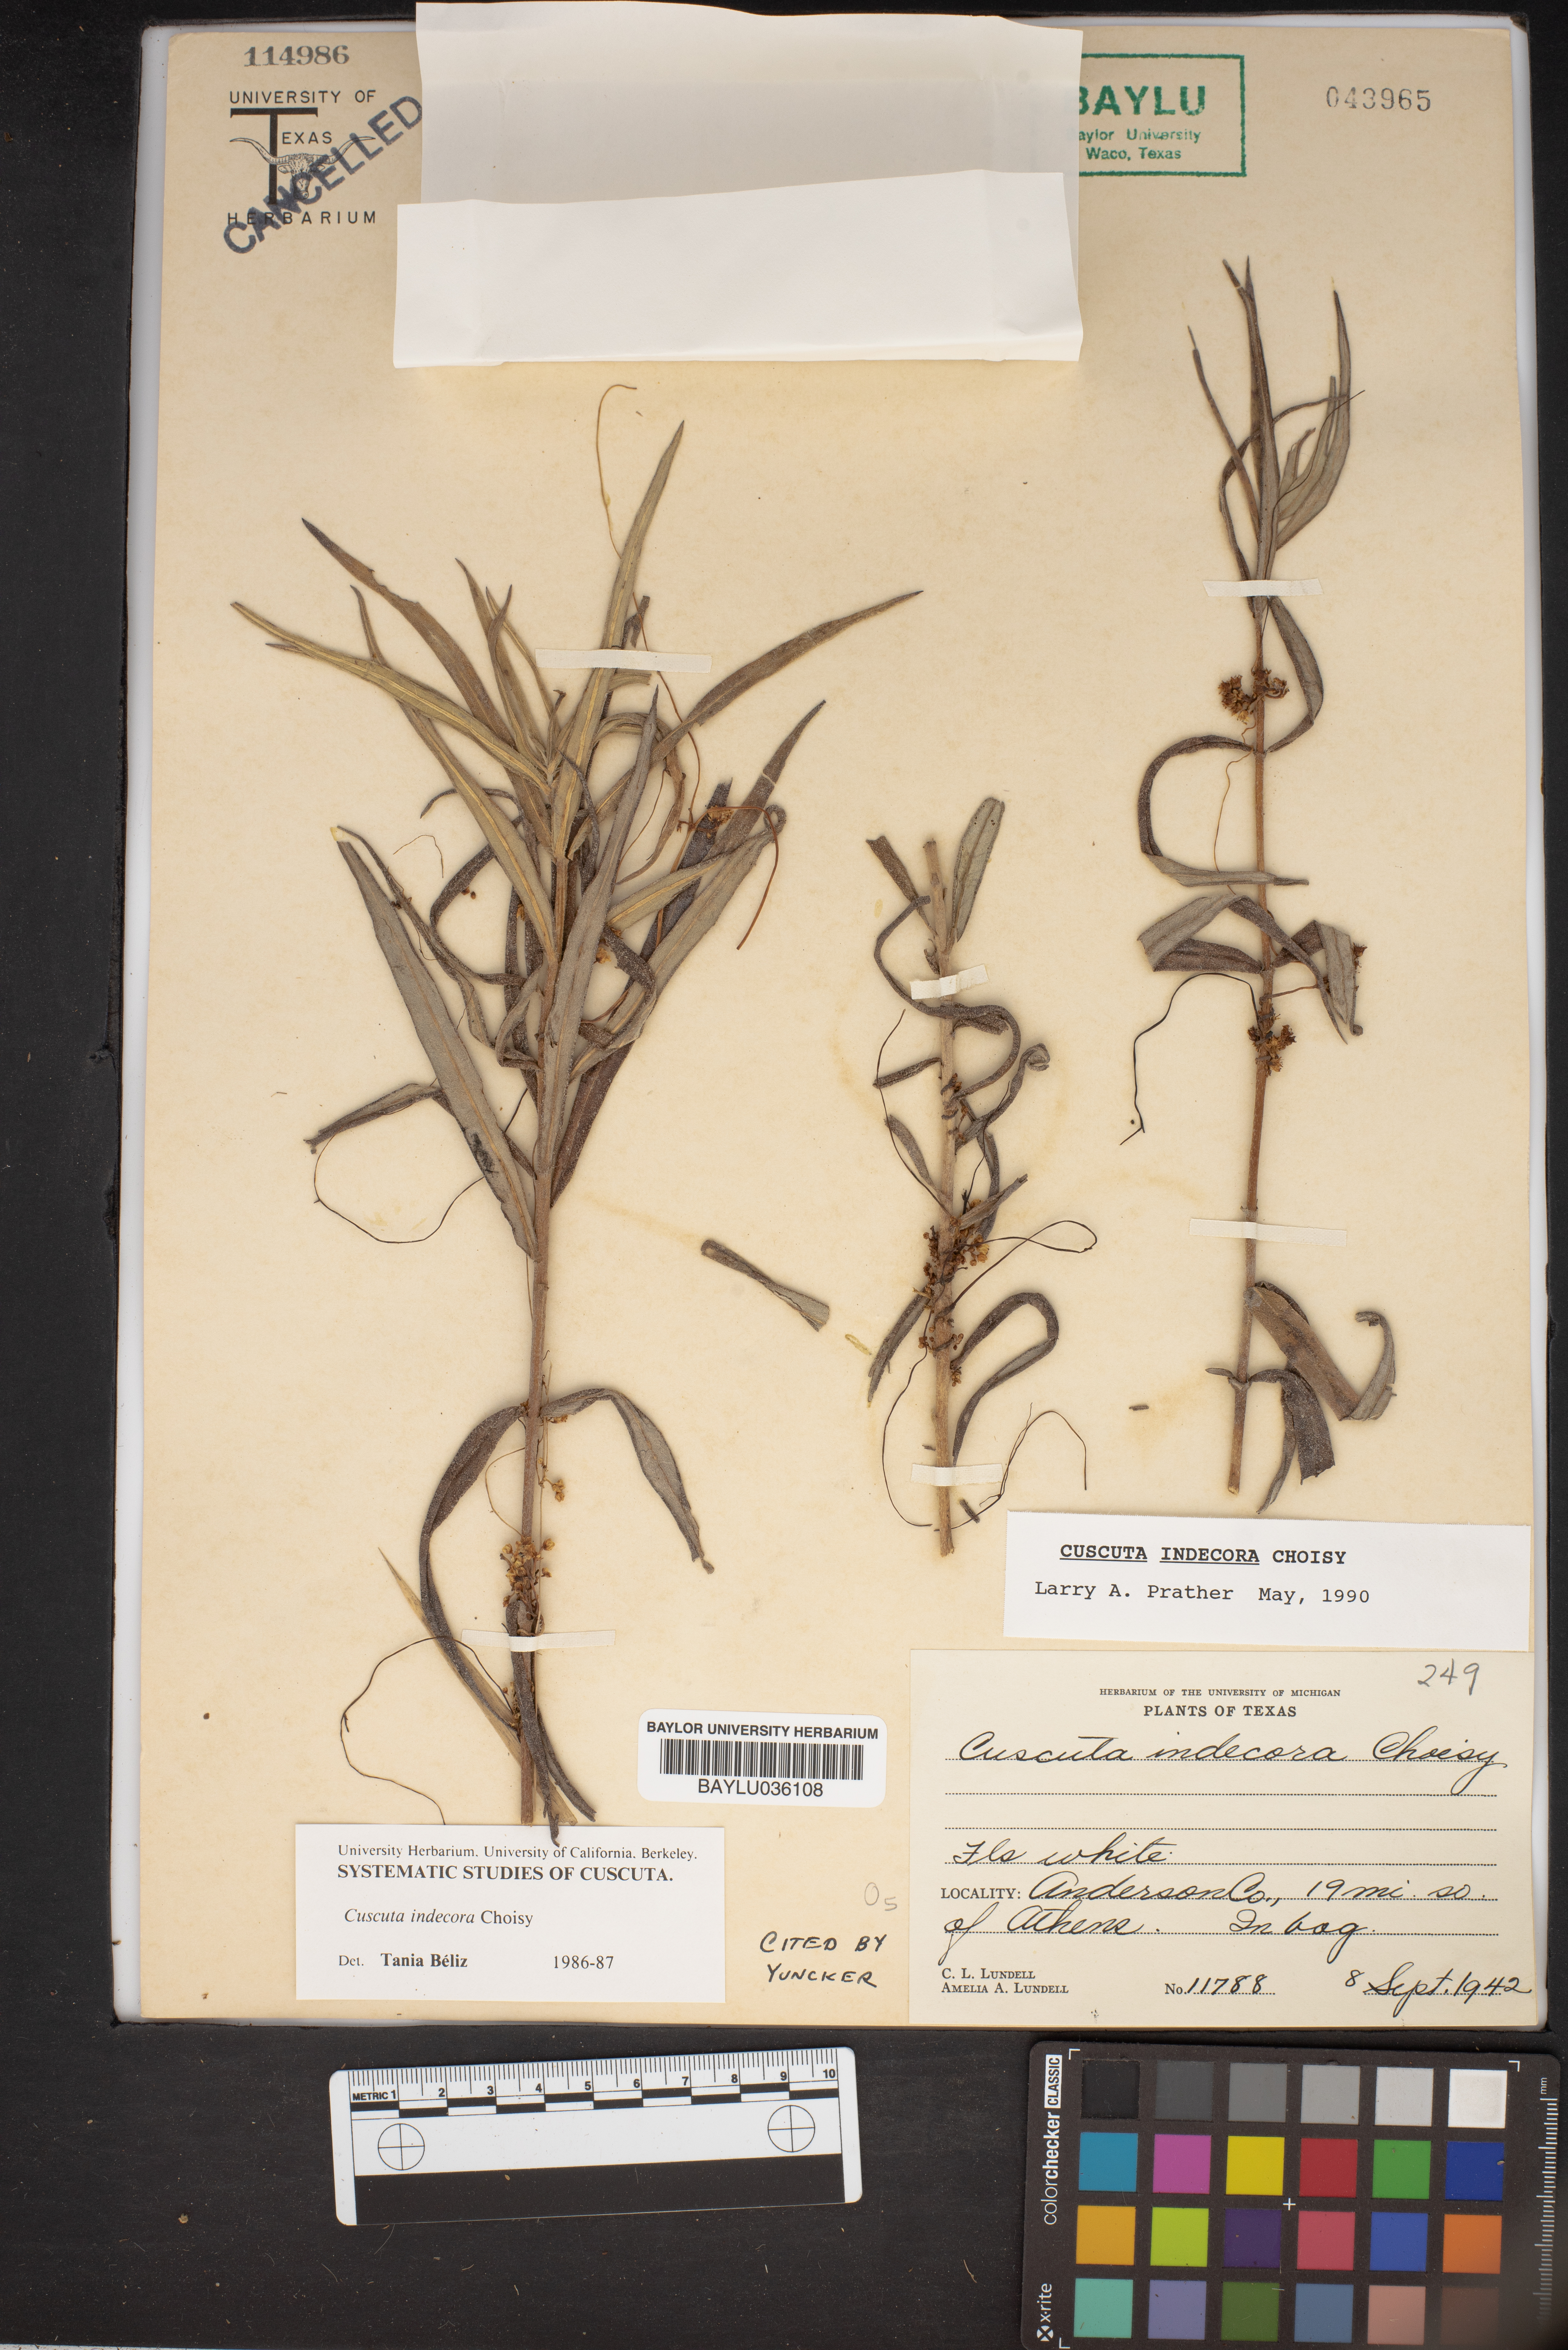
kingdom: Plantae
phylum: Tracheophyta
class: Magnoliopsida
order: Solanales
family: Convolvulaceae
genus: Cuscuta
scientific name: Cuscuta indecora
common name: Large-seed dodder
